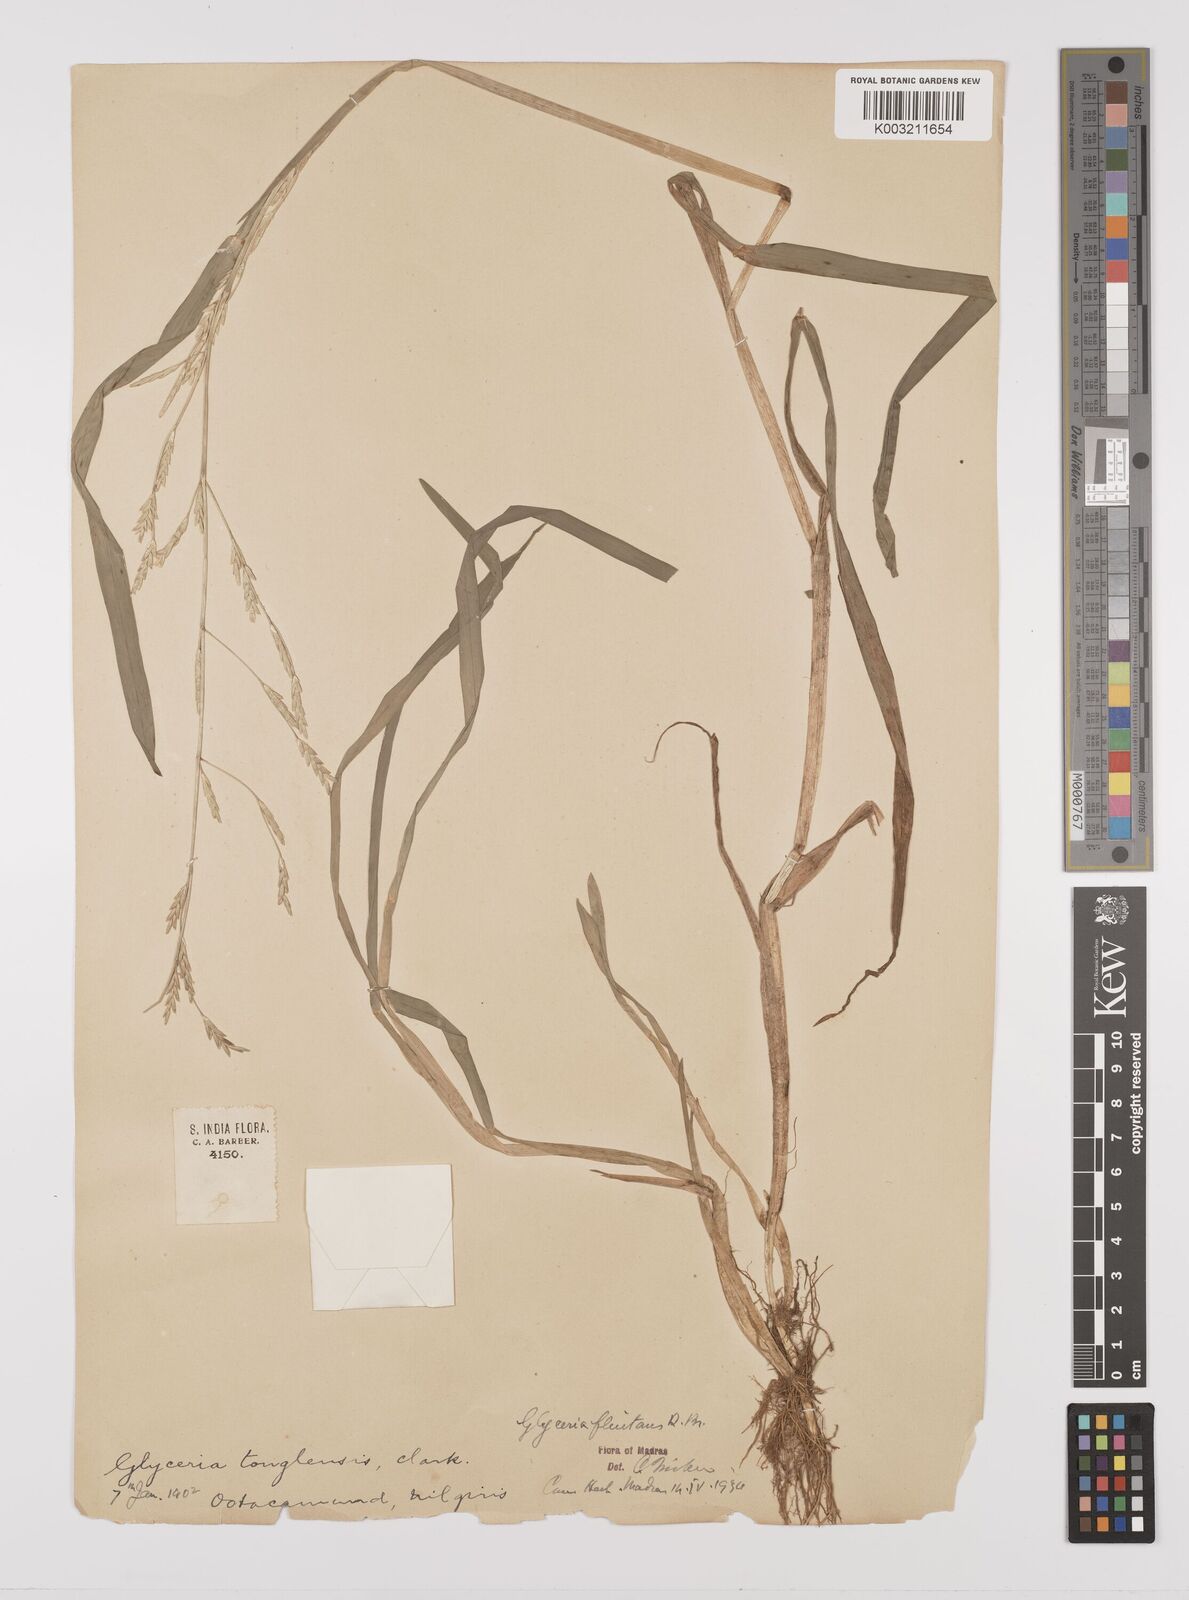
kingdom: Plantae
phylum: Tracheophyta
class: Liliopsida
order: Poales
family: Poaceae
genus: Glyceria
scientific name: Glyceria
